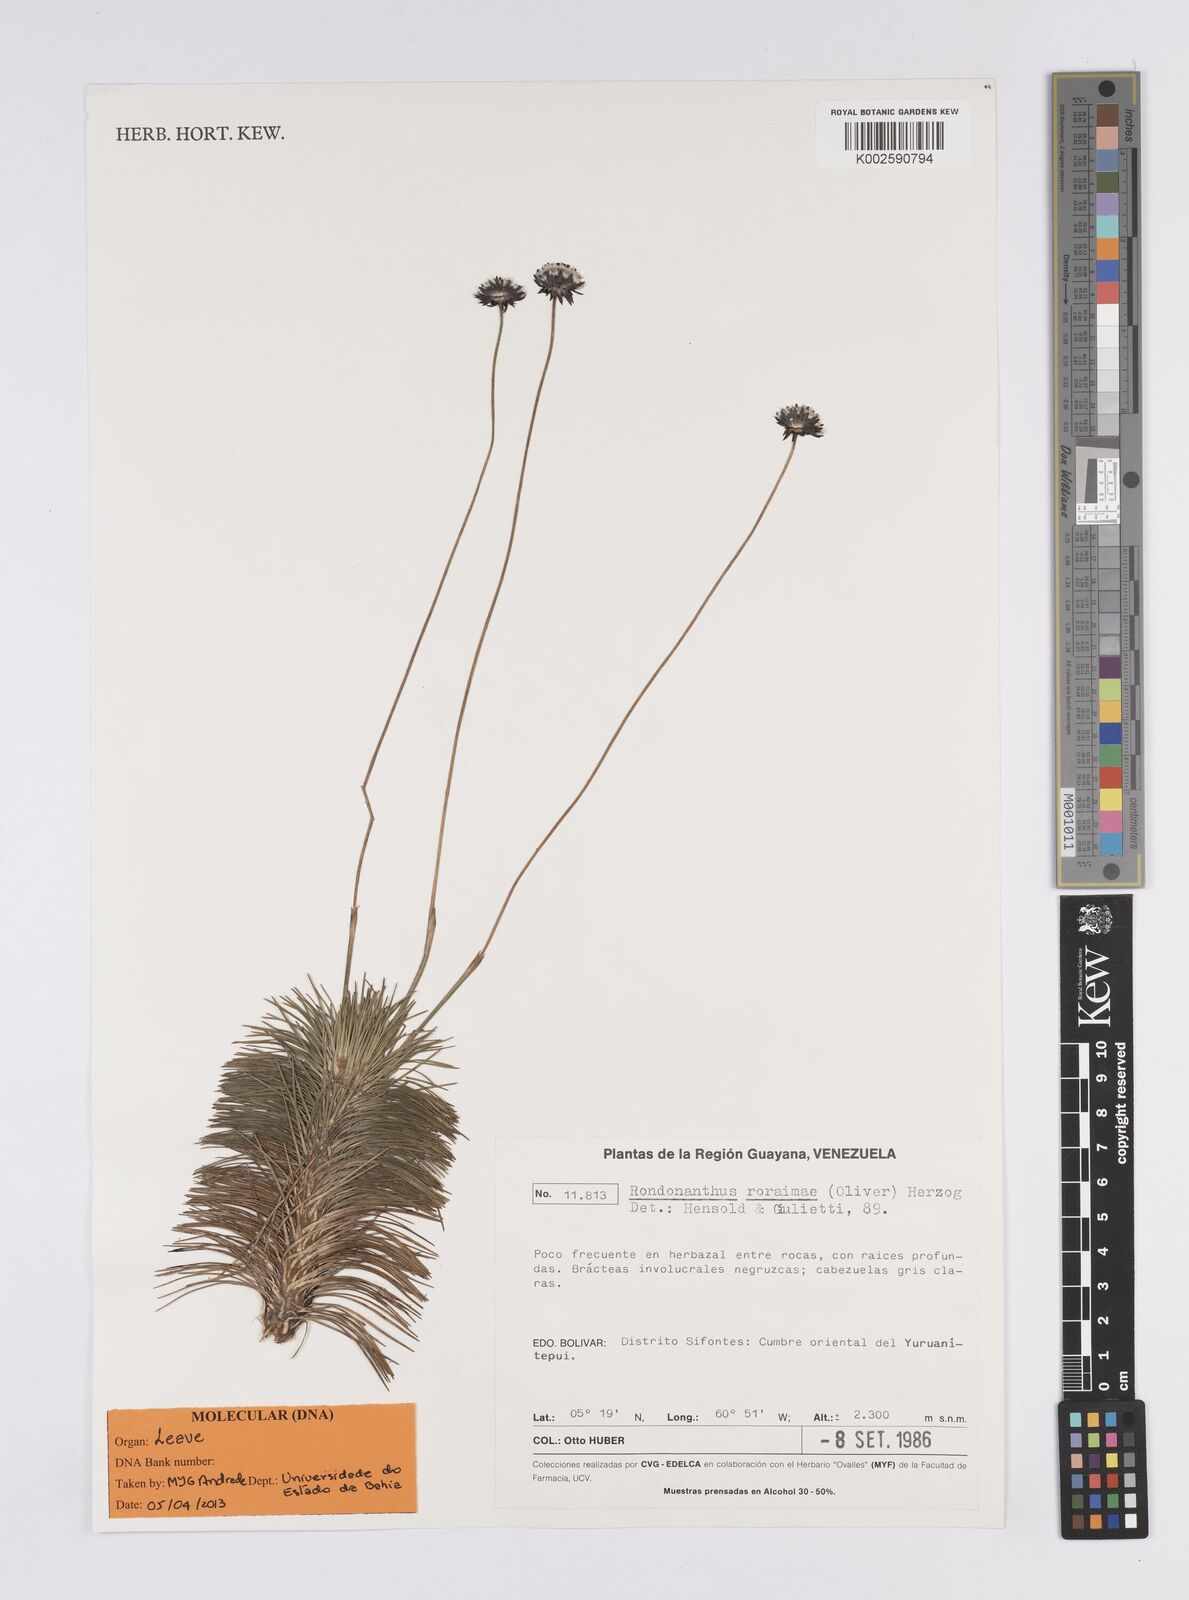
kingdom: Plantae
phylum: Tracheophyta
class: Liliopsida
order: Poales
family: Eriocaulaceae
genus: Rondonanthus
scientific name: Rondonanthus roraimae
